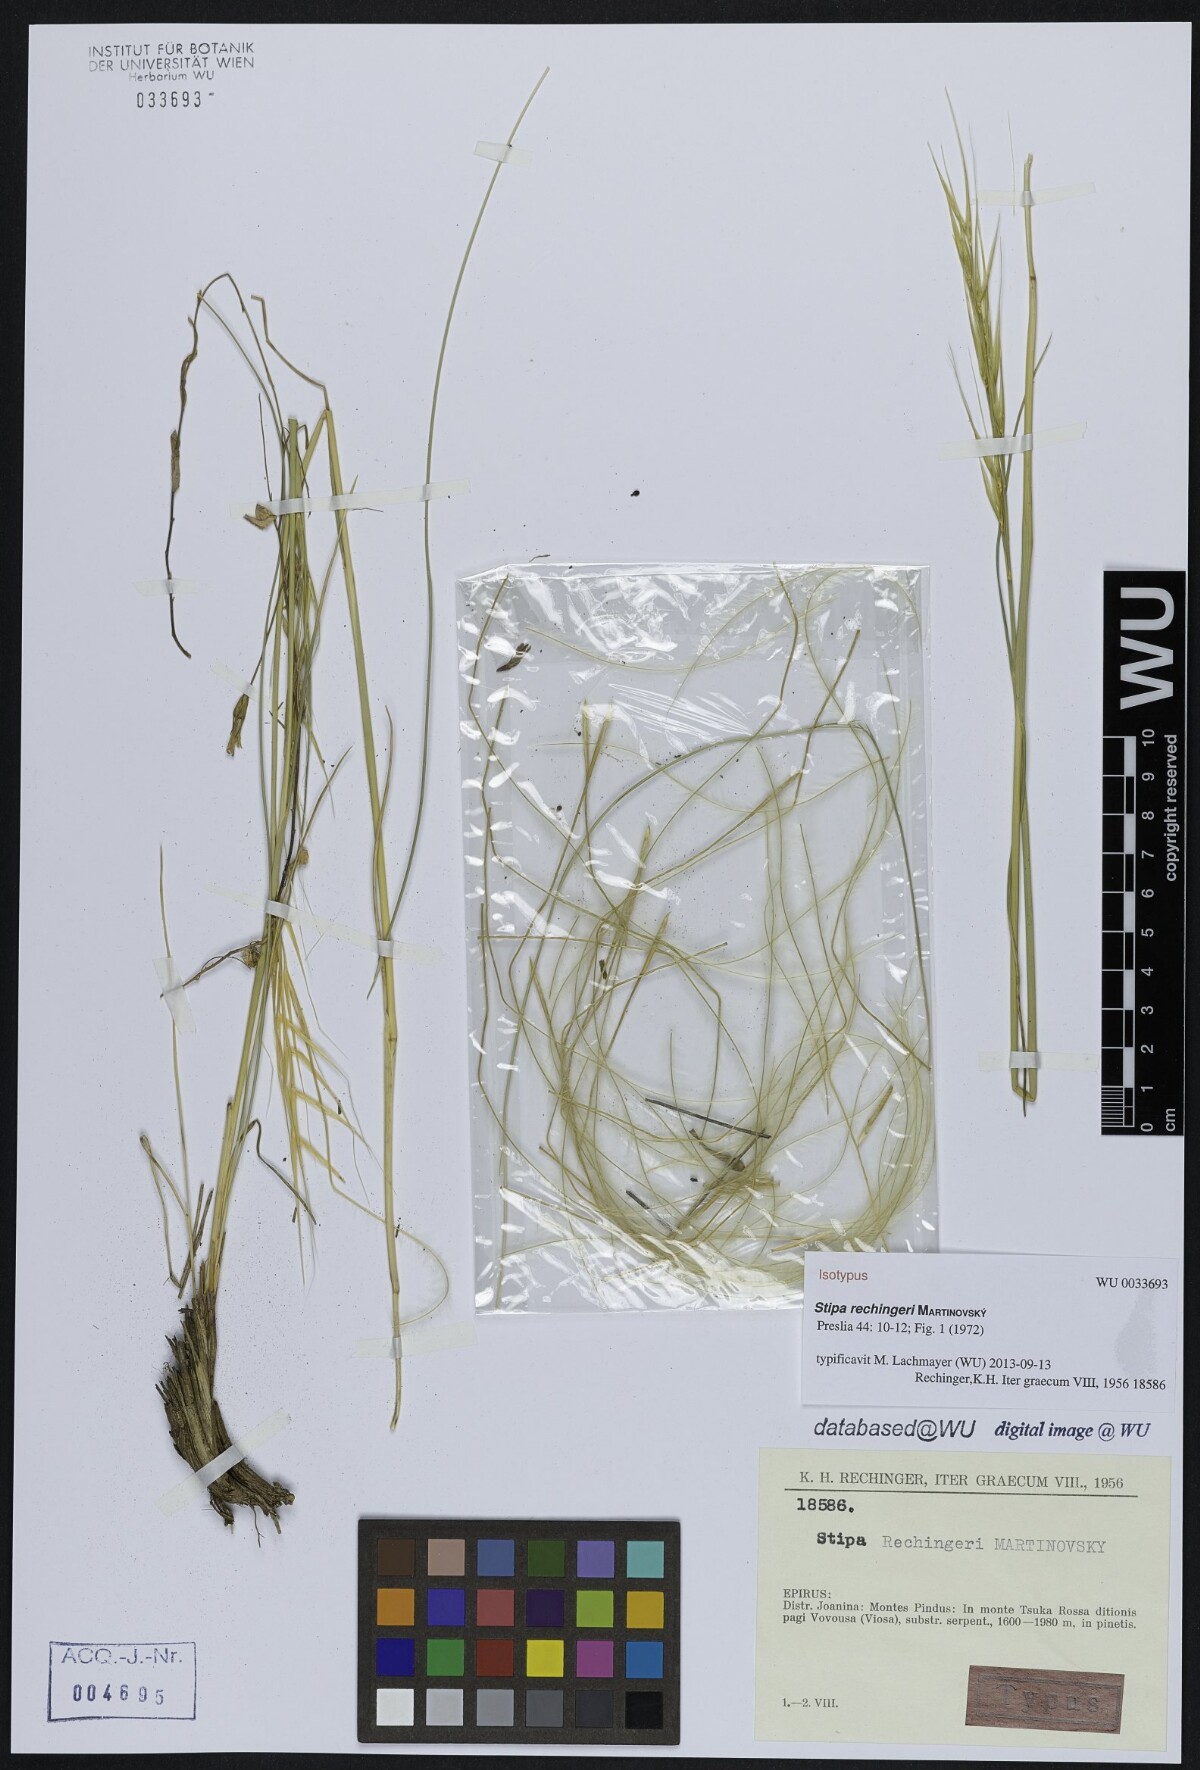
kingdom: Plantae
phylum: Tracheophyta
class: Liliopsida
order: Poales
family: Poaceae
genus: Stipa
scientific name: Stipa rechingeri
